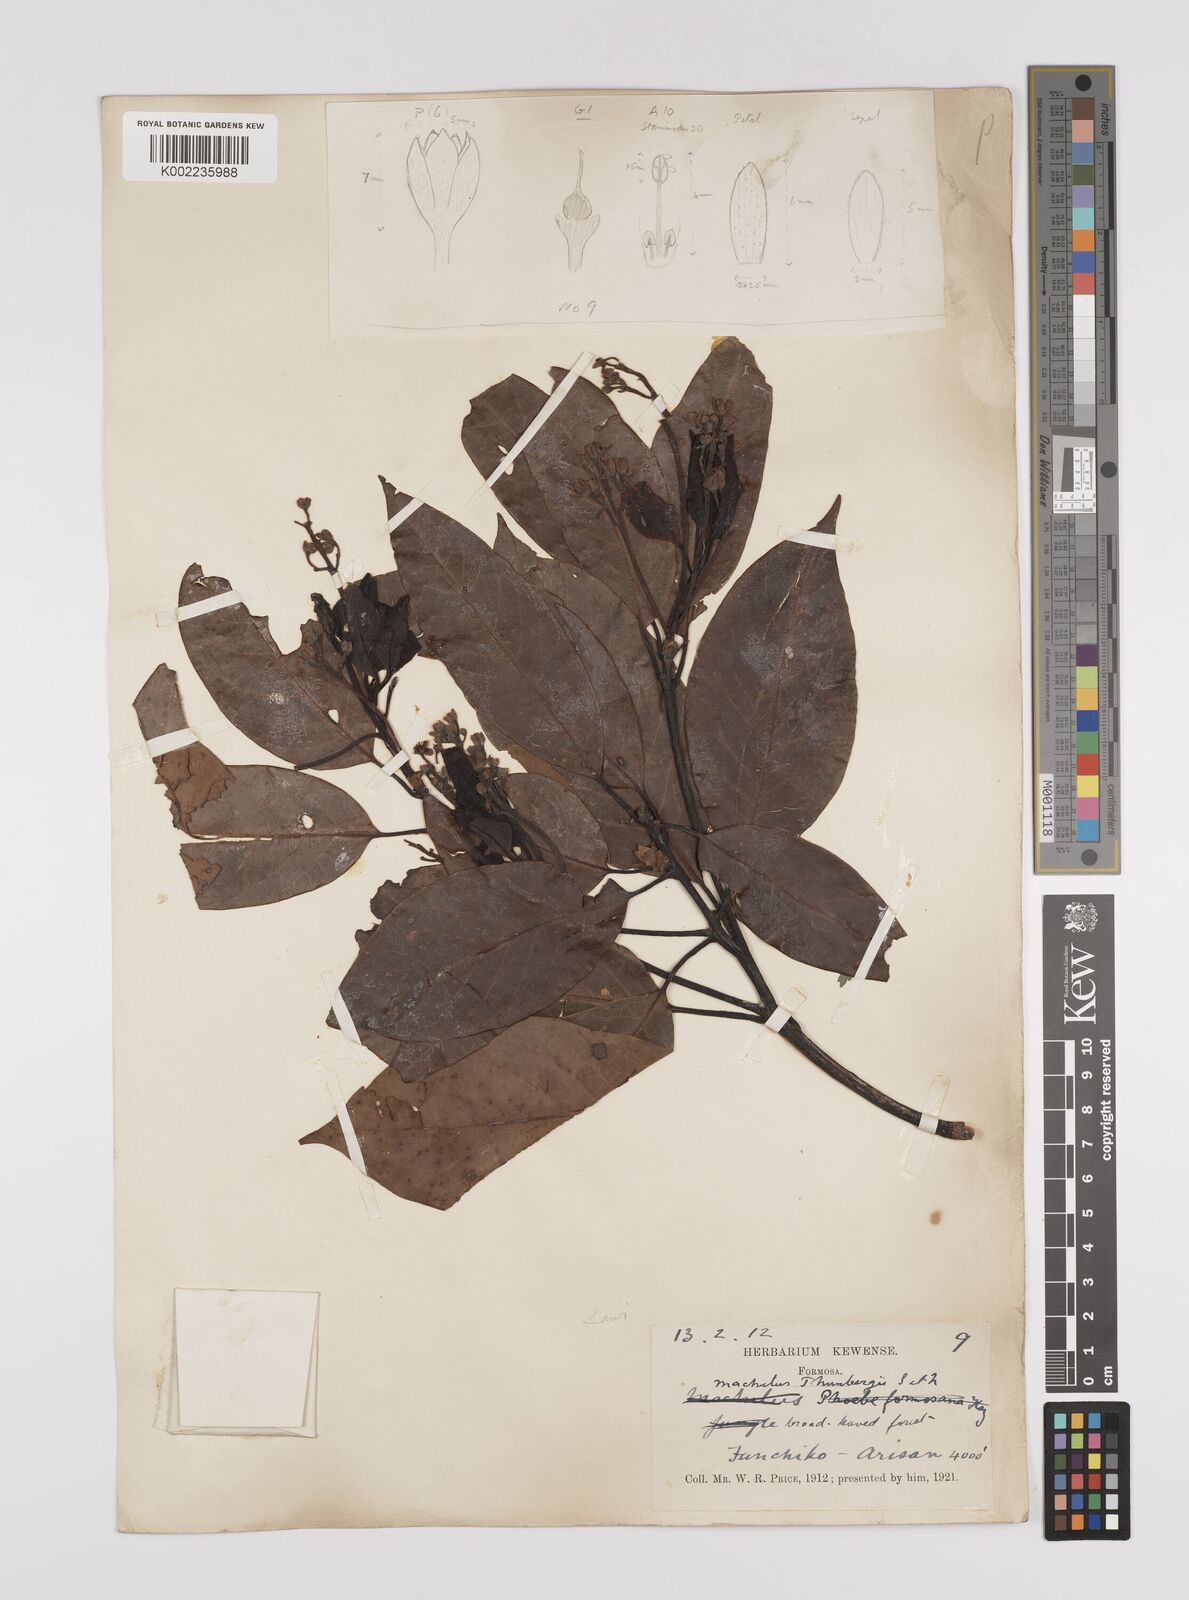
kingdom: Plantae
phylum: Tracheophyta
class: Magnoliopsida
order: Laurales
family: Lauraceae
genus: Persea
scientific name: Persea
